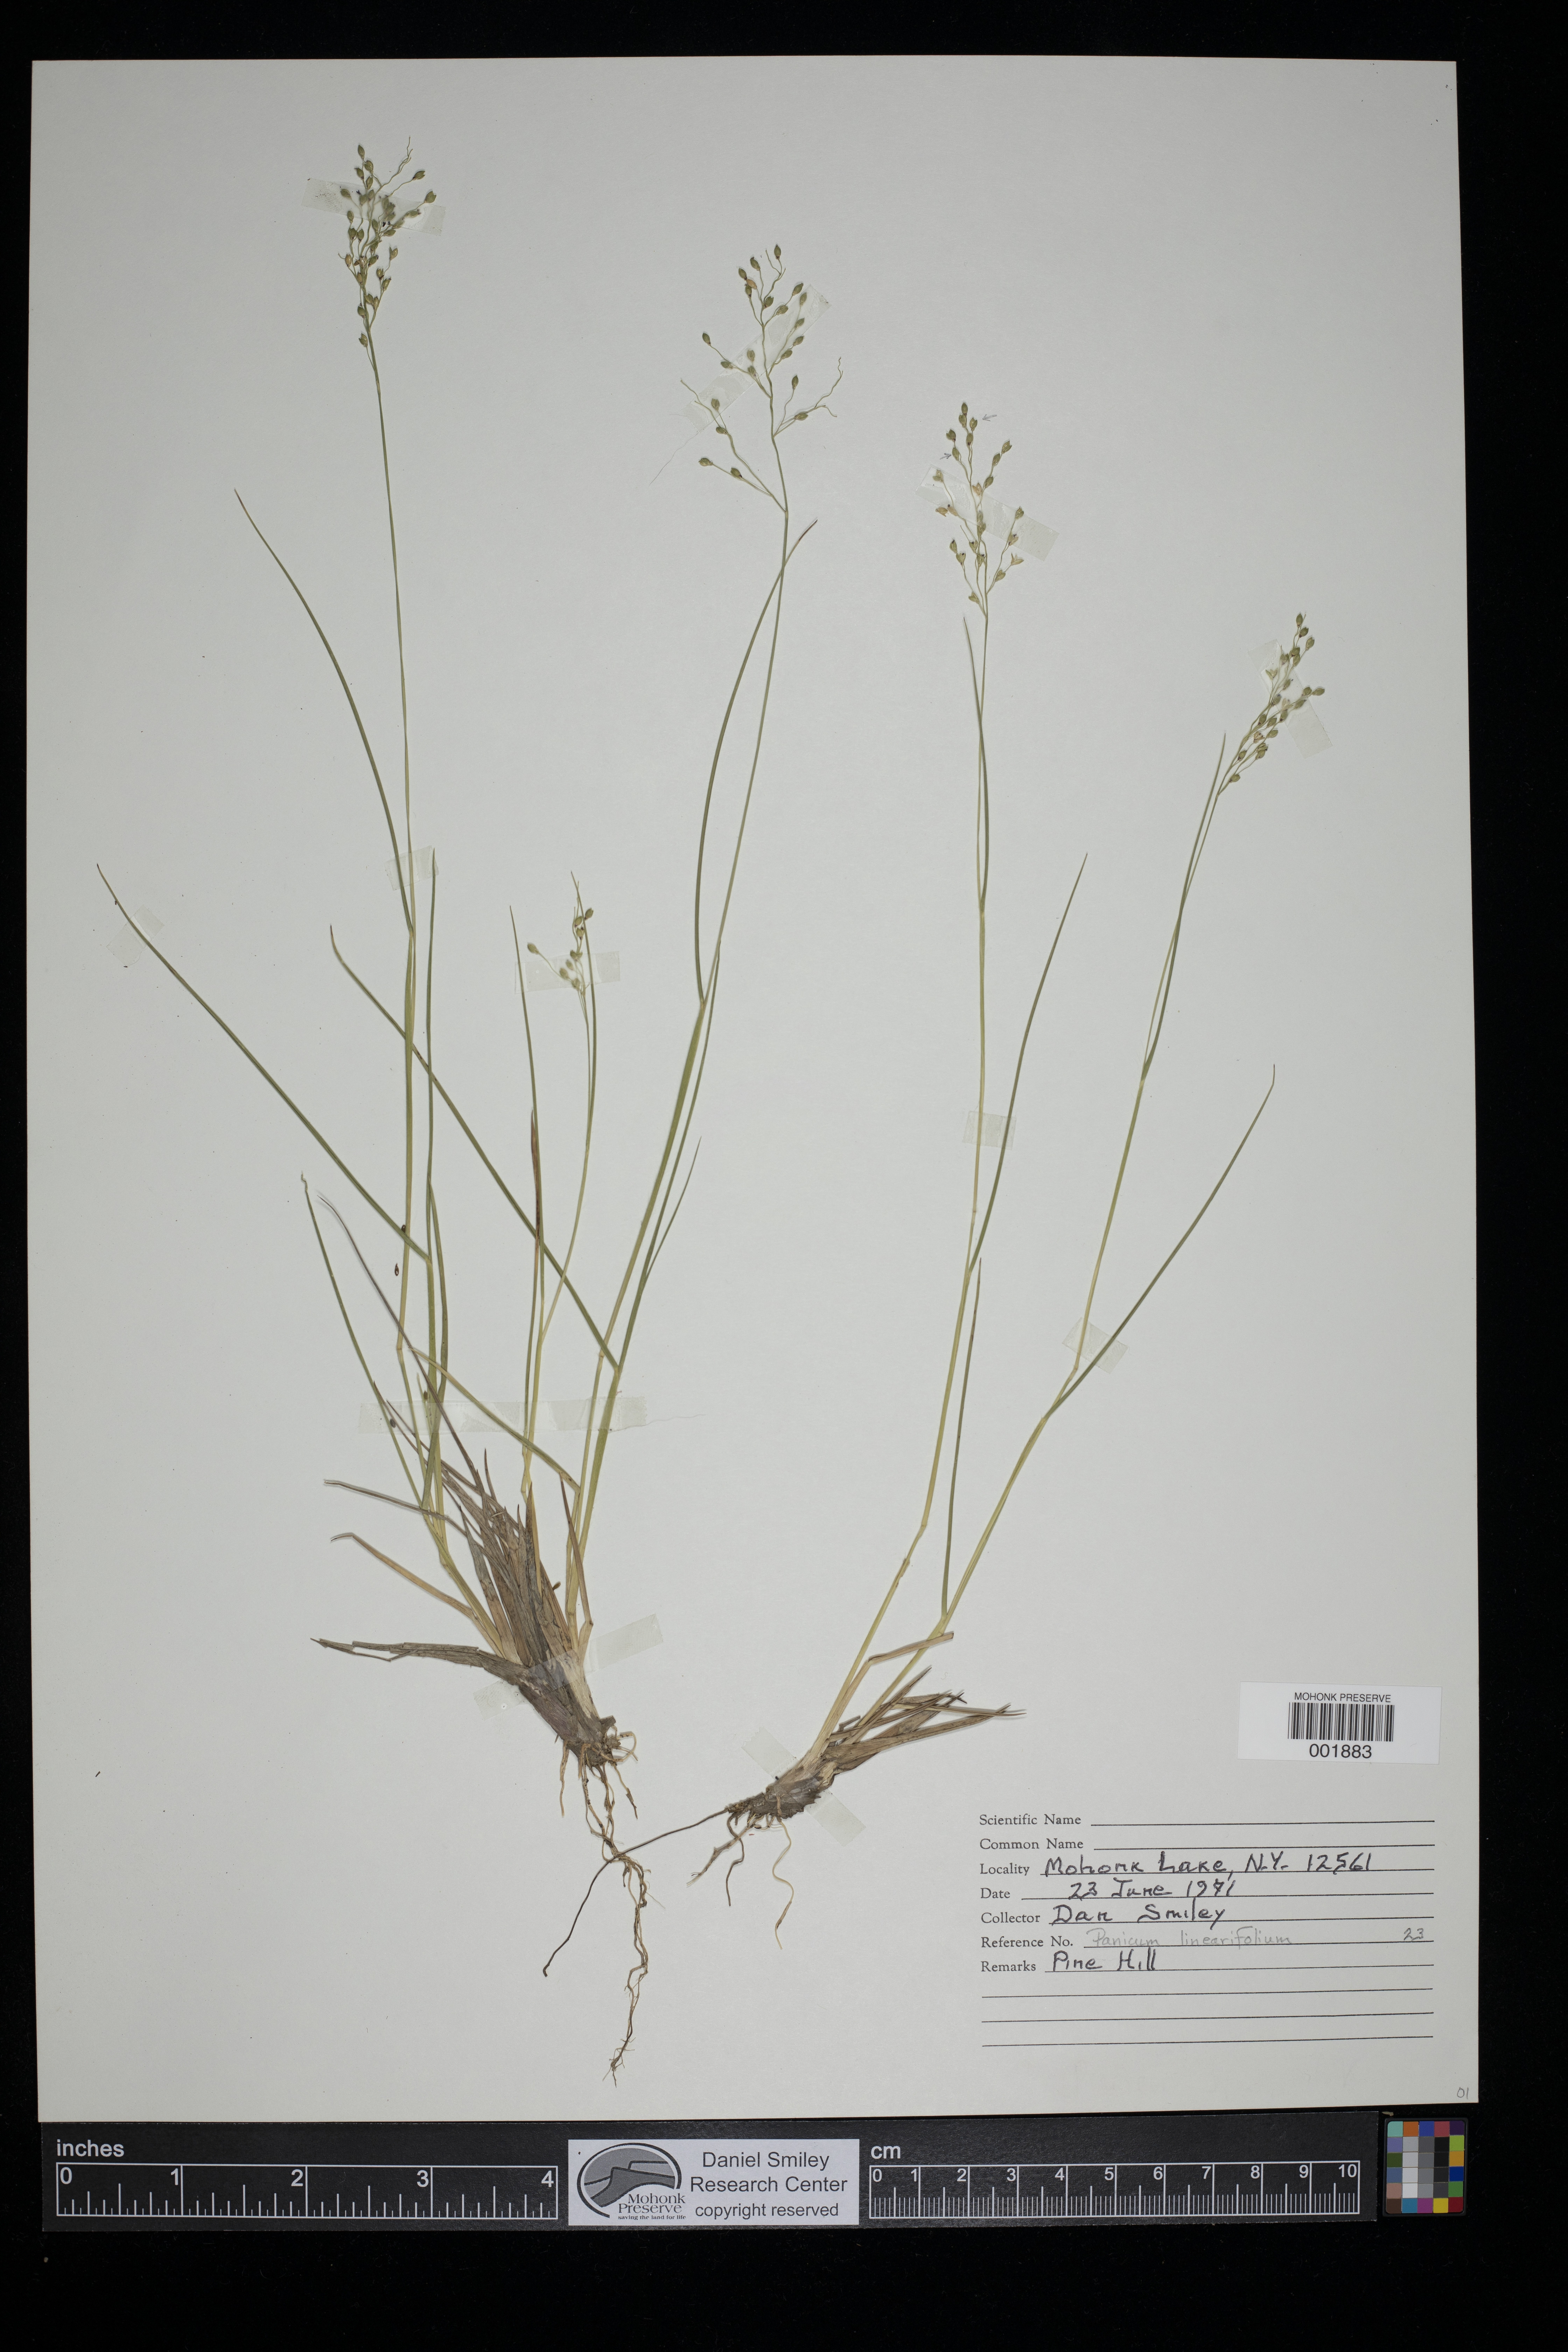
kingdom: Plantae
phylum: Tracheophyta
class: Liliopsida
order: Poales
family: Poaceae
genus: Dichanthelium
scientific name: Dichanthelium linearifolium
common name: Linear-leaved panicgrass
